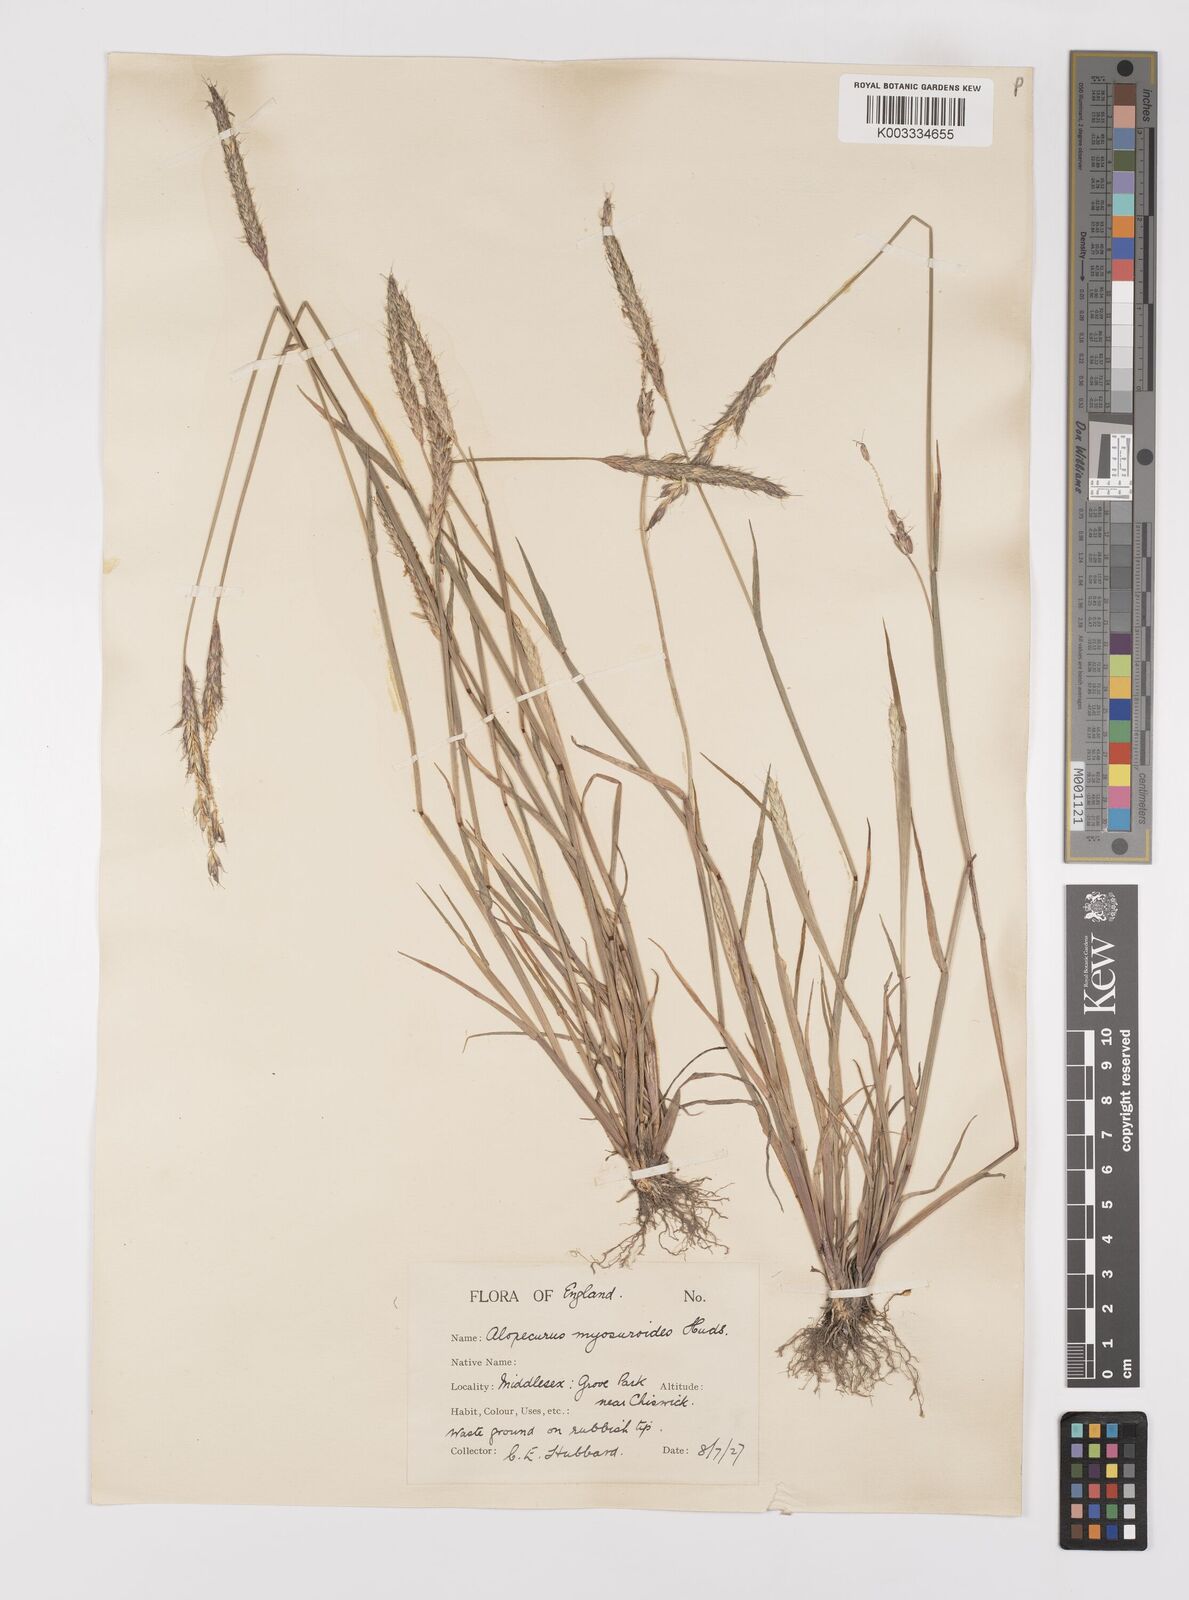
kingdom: Plantae
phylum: Tracheophyta
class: Liliopsida
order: Poales
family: Poaceae
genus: Alopecurus
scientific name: Alopecurus myosuroides
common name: Black-grass
